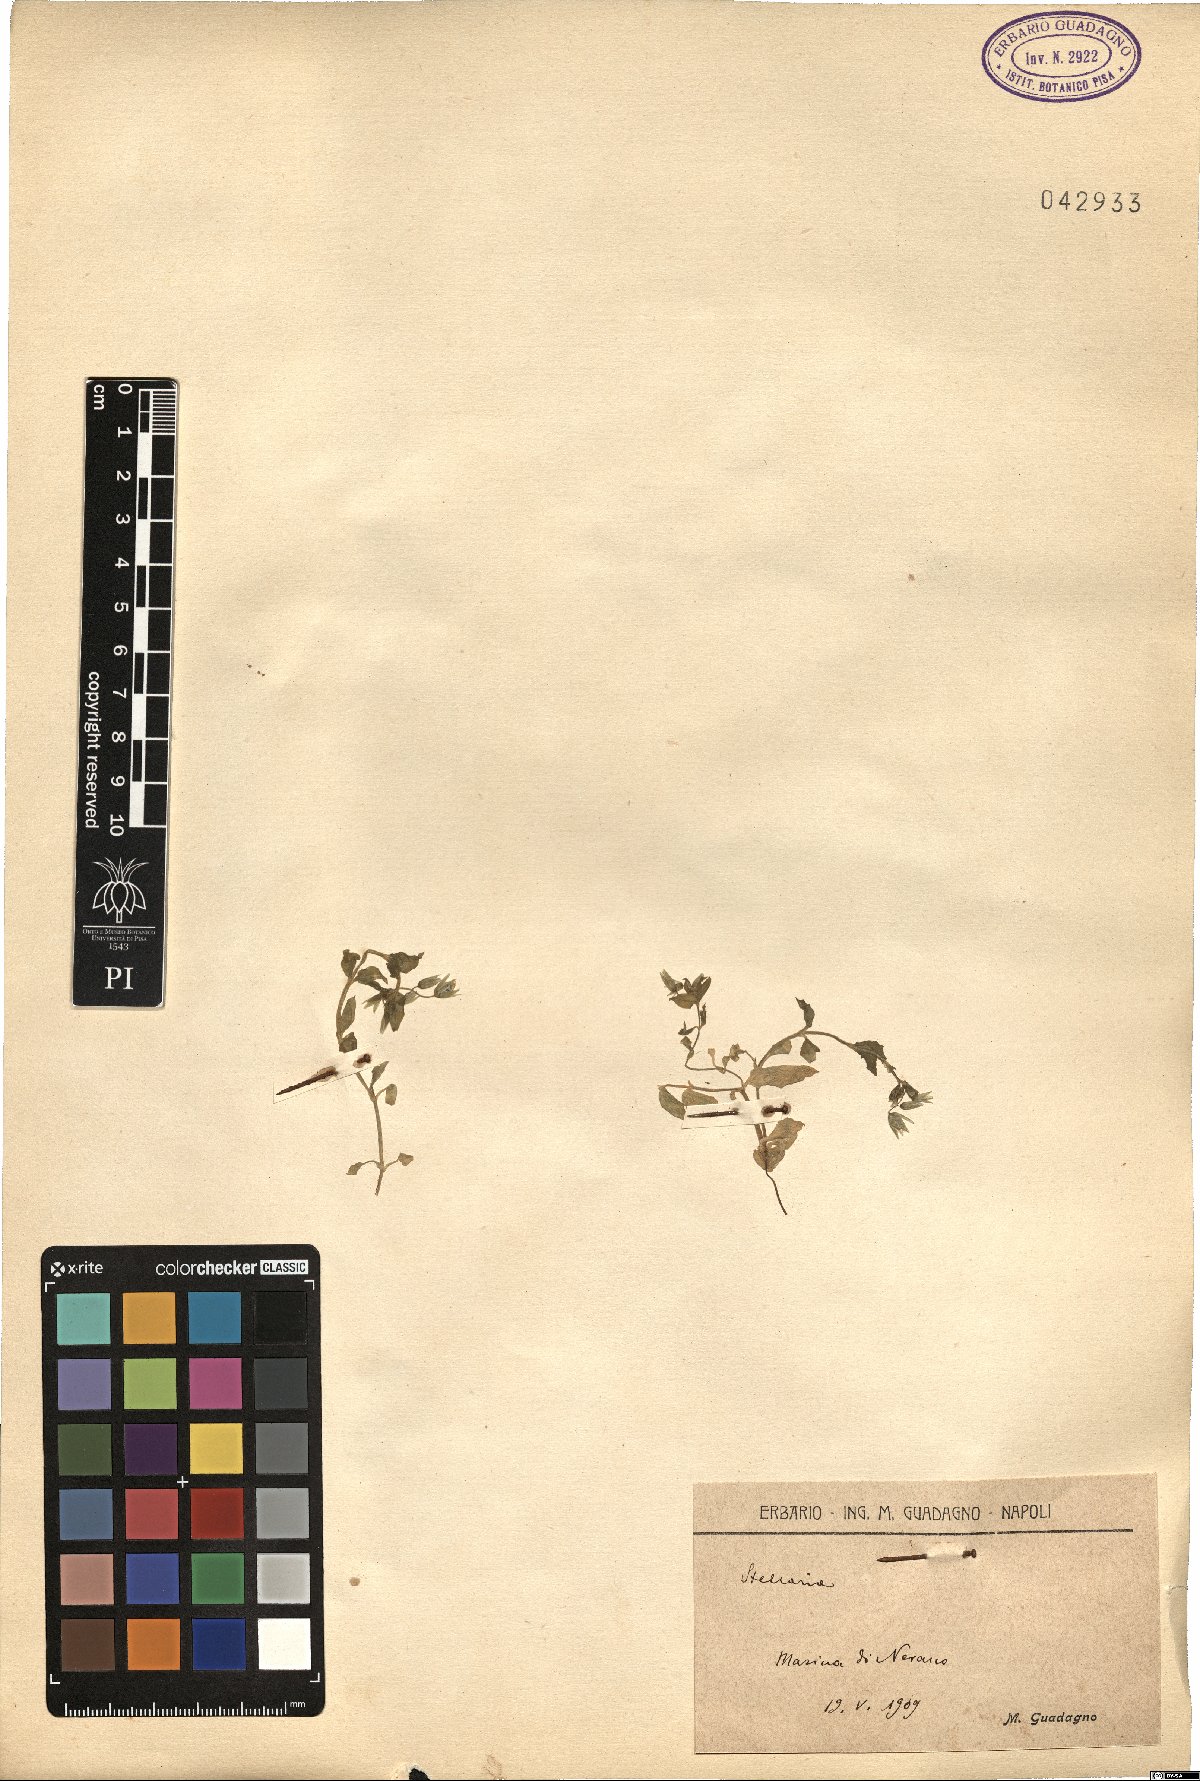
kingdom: Plantae
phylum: Tracheophyta
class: Magnoliopsida
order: Caryophyllales
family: Caryophyllaceae
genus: Stellaria
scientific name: Stellaria
